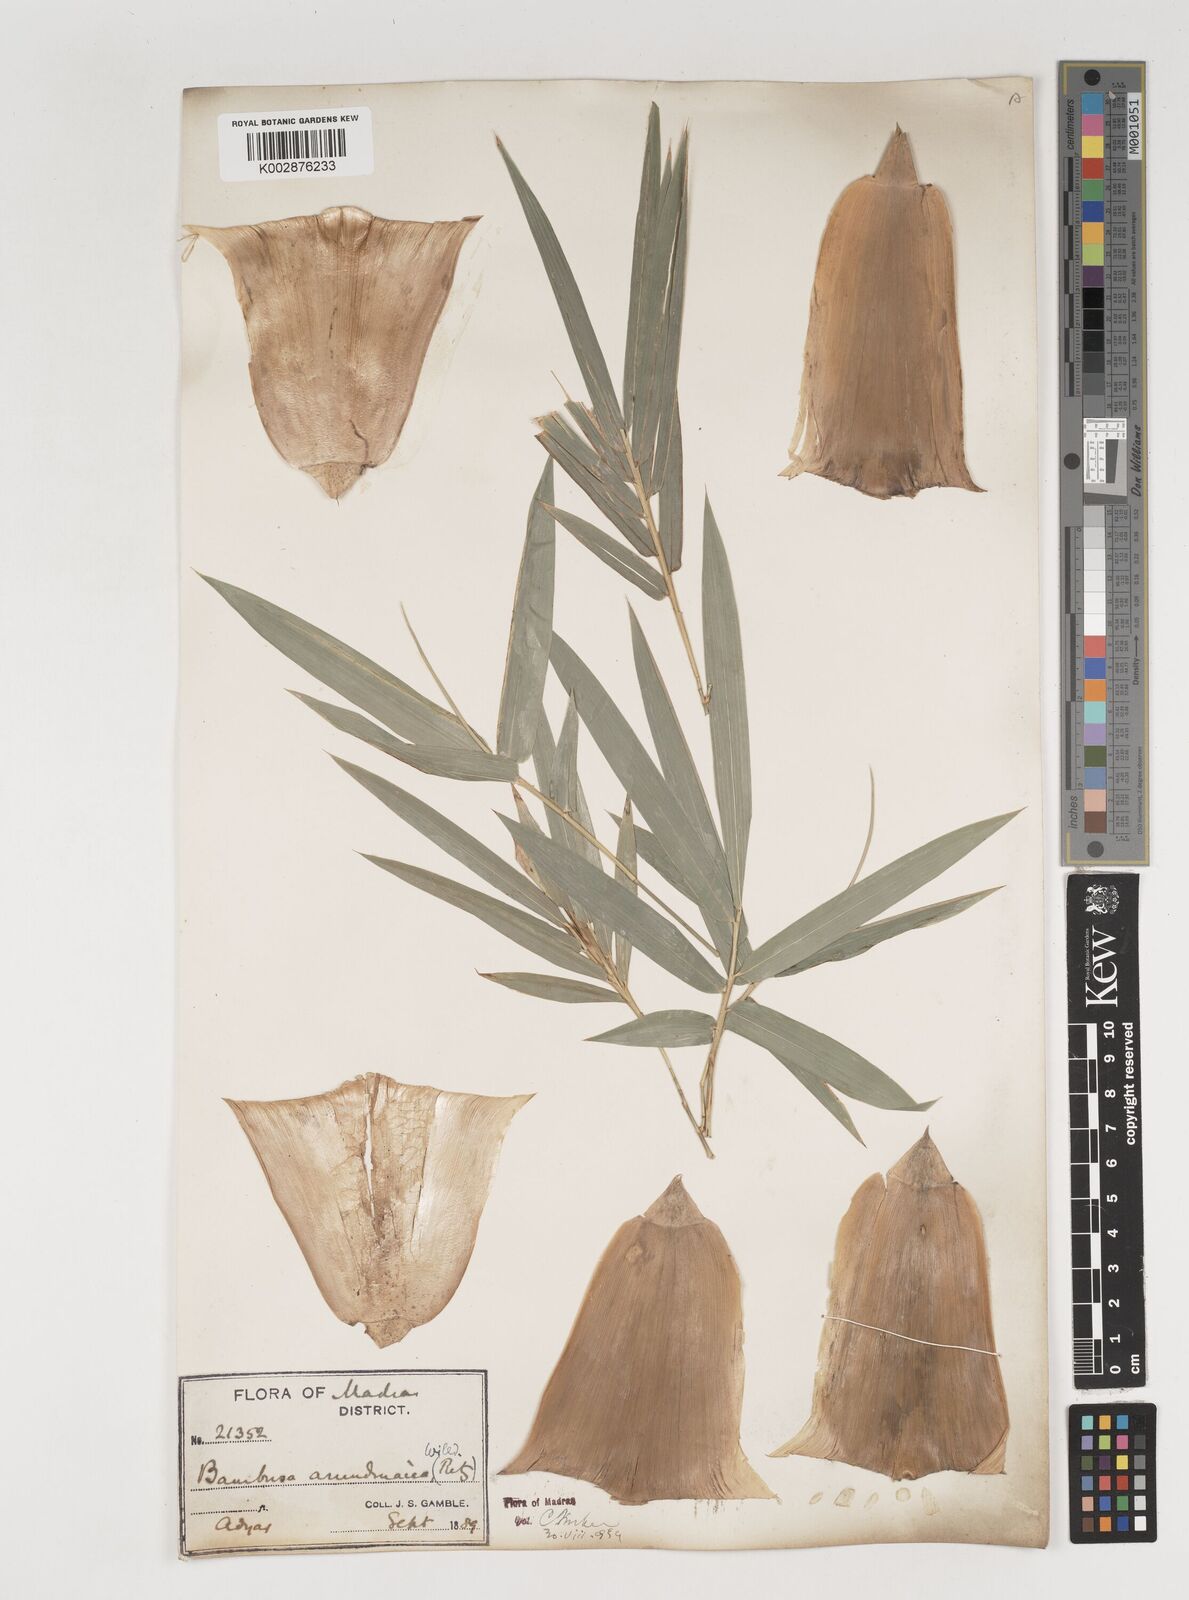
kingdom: Plantae
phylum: Tracheophyta
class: Liliopsida
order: Poales
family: Poaceae
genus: Bambusa
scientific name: Bambusa bambos
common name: Indian thorny bamboo
